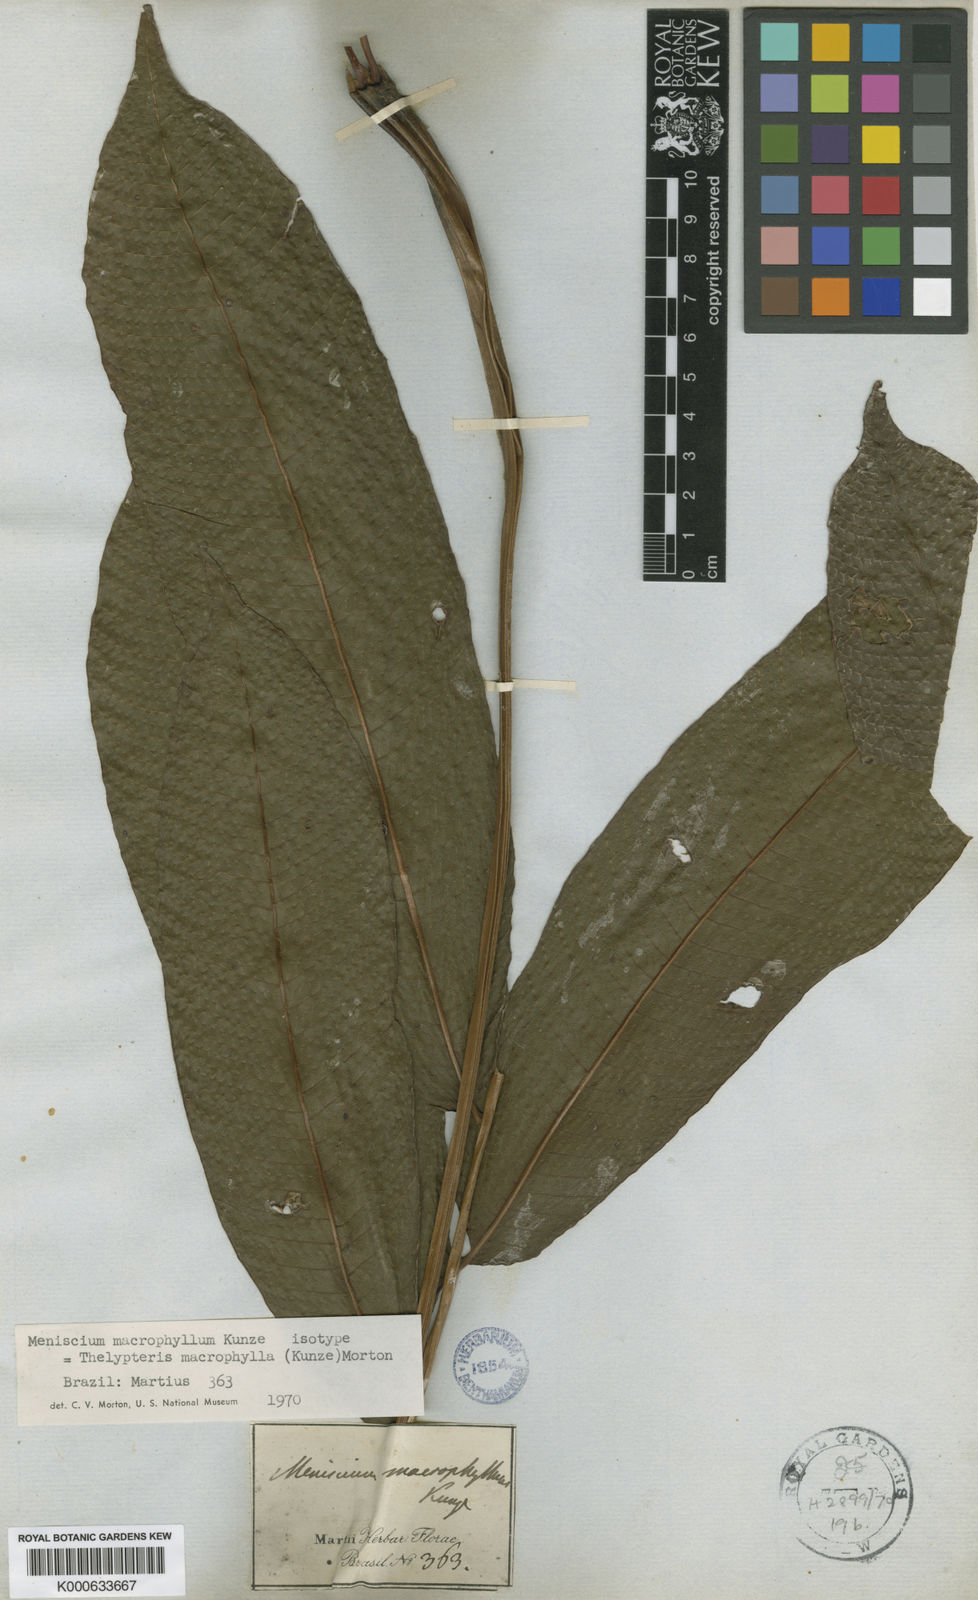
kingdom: Plantae
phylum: Tracheophyta
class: Polypodiopsida
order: Polypodiales
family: Thelypteridaceae
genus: Meniscium
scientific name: Meniscium macrophyllum
